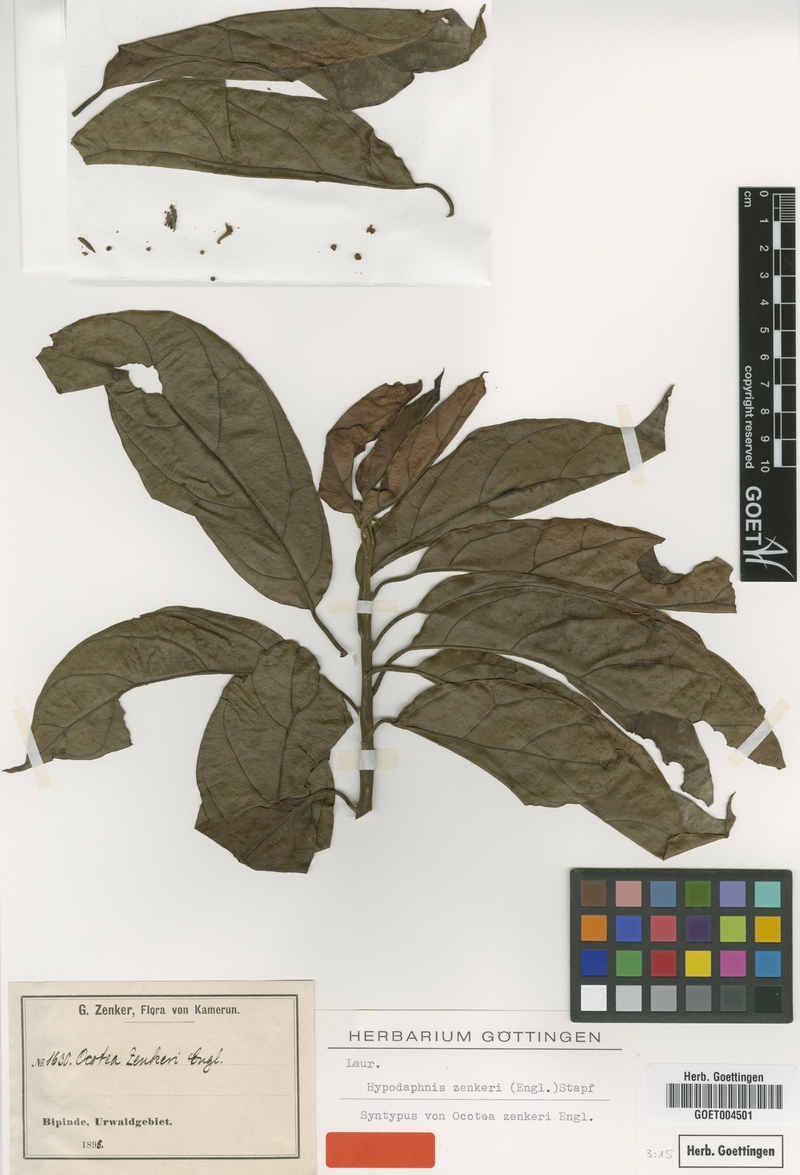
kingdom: Plantae
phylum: Tracheophyta
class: Magnoliopsida
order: Laurales
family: Lauraceae
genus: Hypodaphnis
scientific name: Hypodaphnis zenkeri
